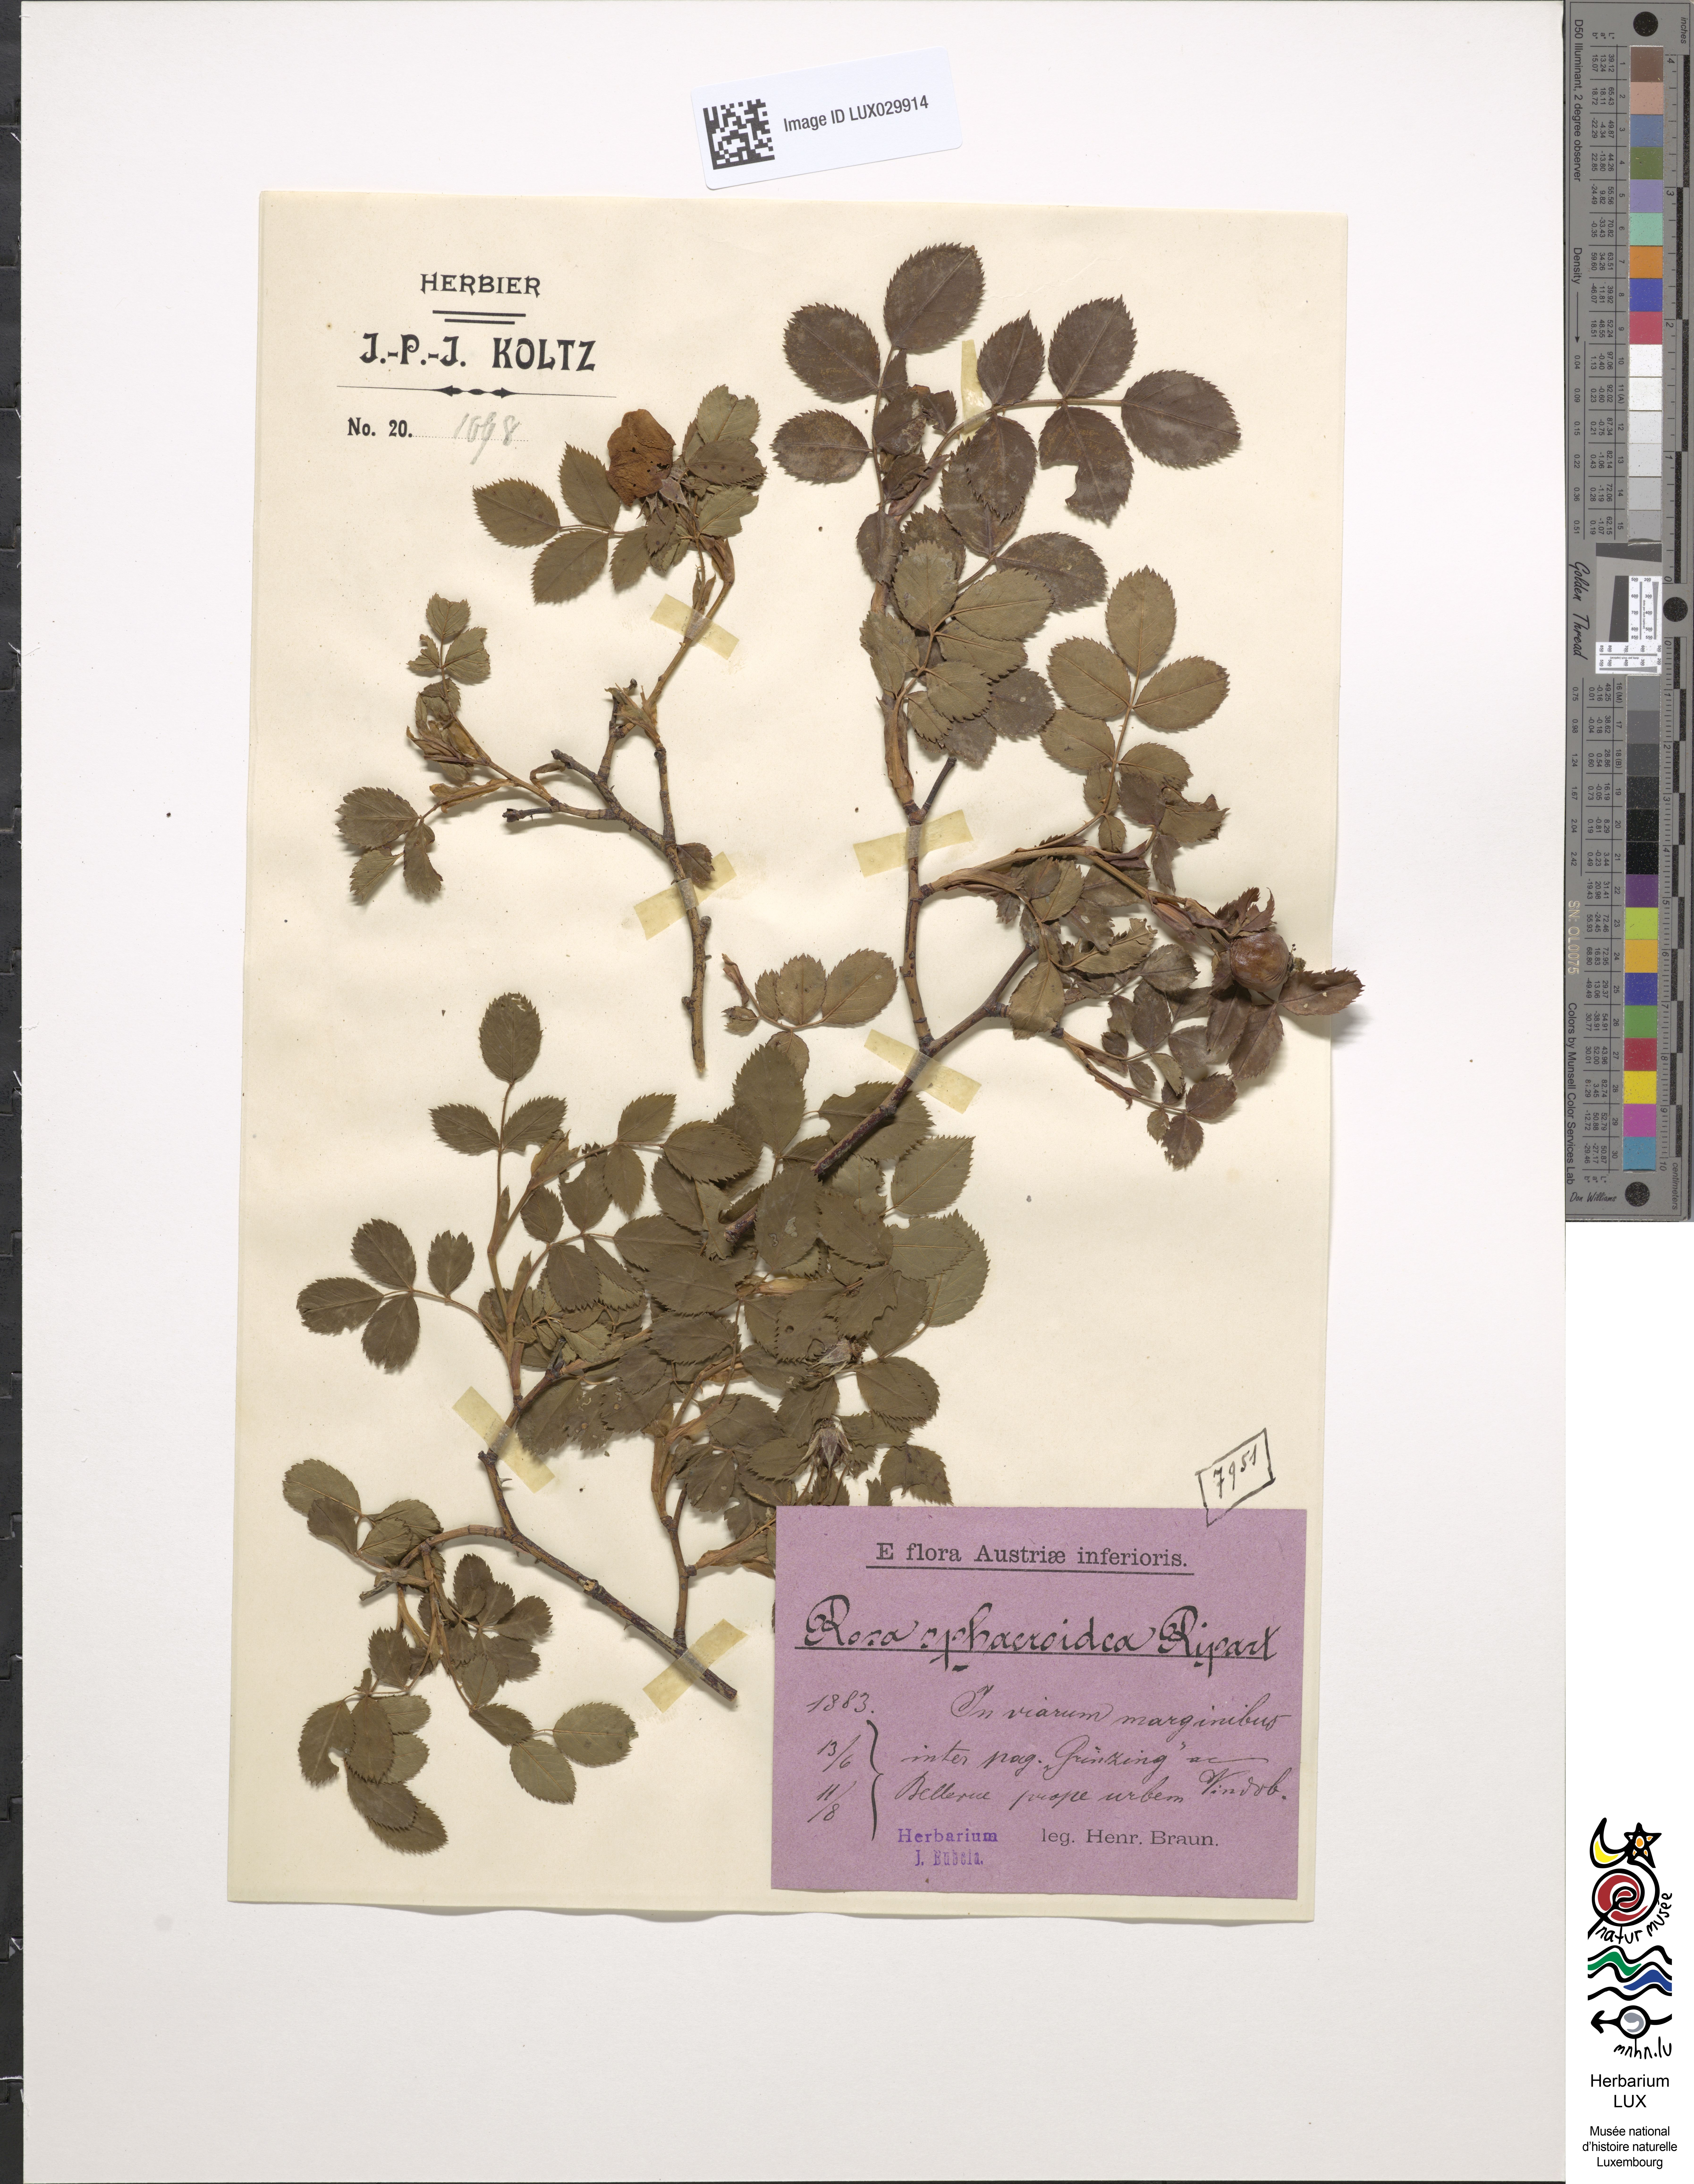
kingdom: Plantae
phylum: Tracheophyta
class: Magnoliopsida
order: Rosales
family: Rosaceae
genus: Rosa
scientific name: Rosa corymbifera
